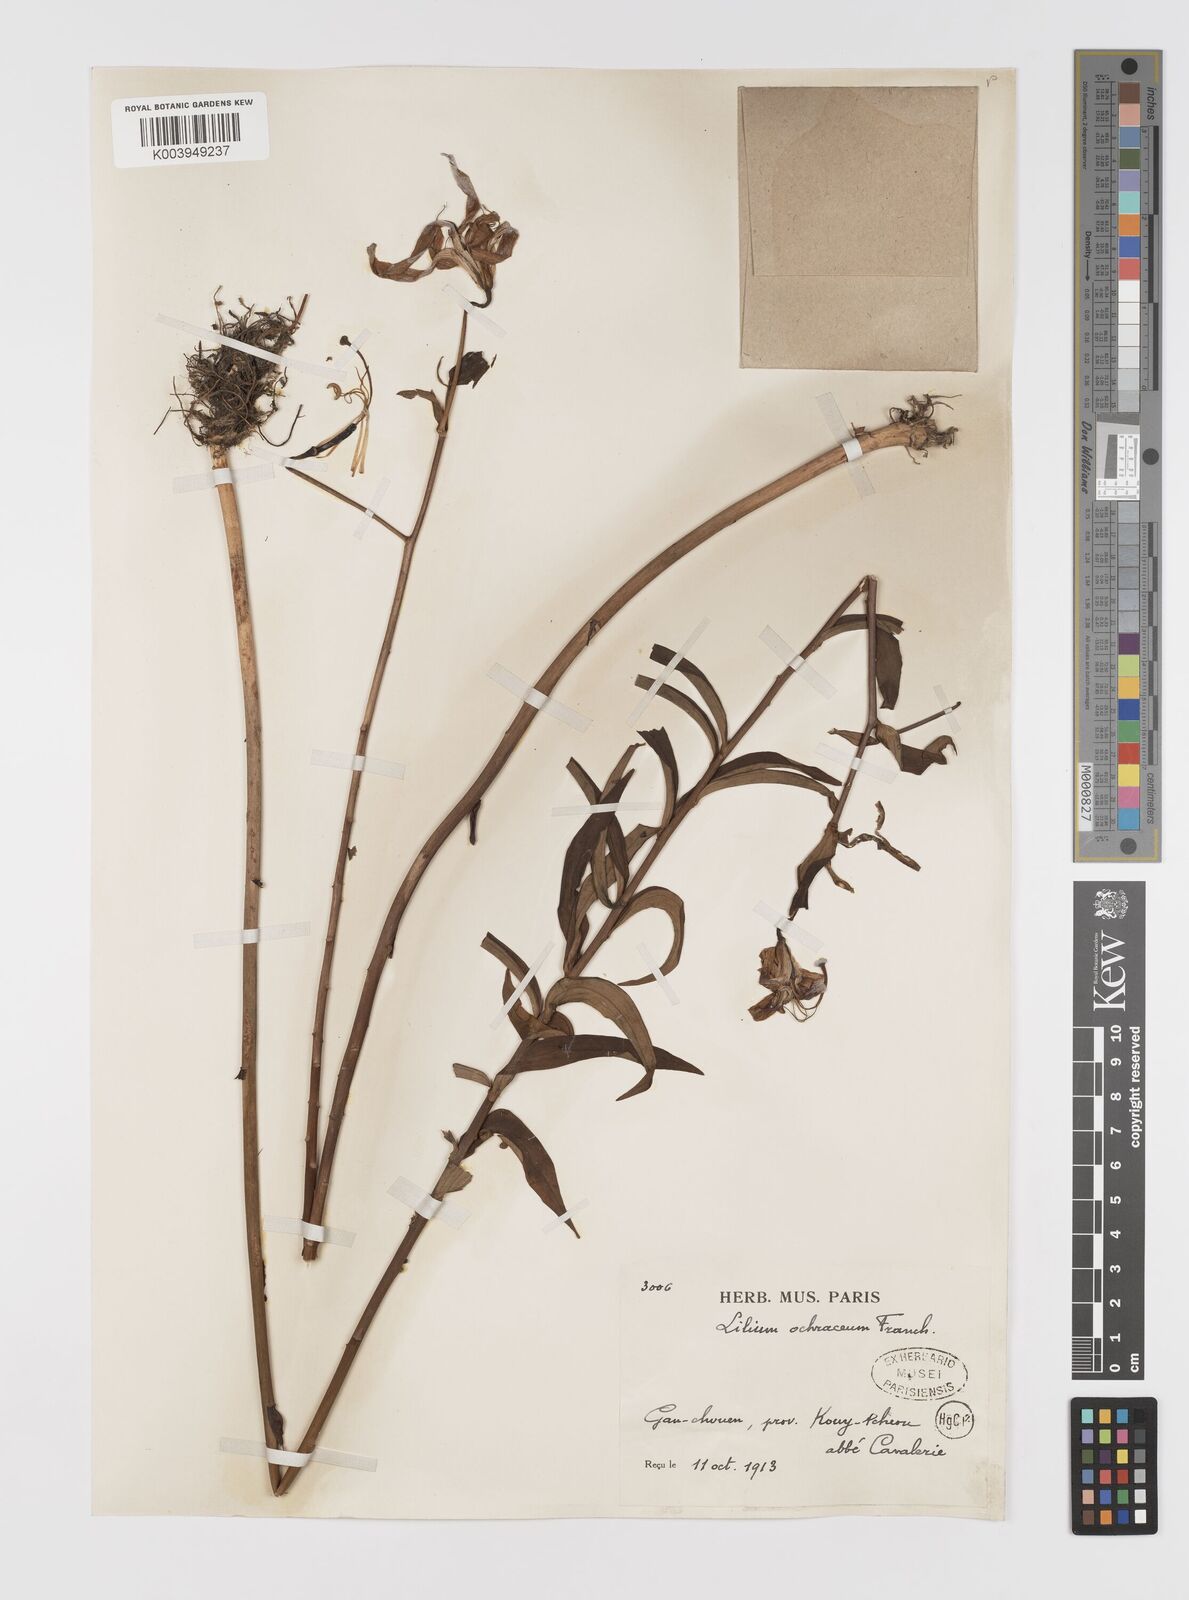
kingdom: Plantae
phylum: Tracheophyta
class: Liliopsida
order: Liliales
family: Liliaceae
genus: Lilium
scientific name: Lilium primulinum
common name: Ochre lily
